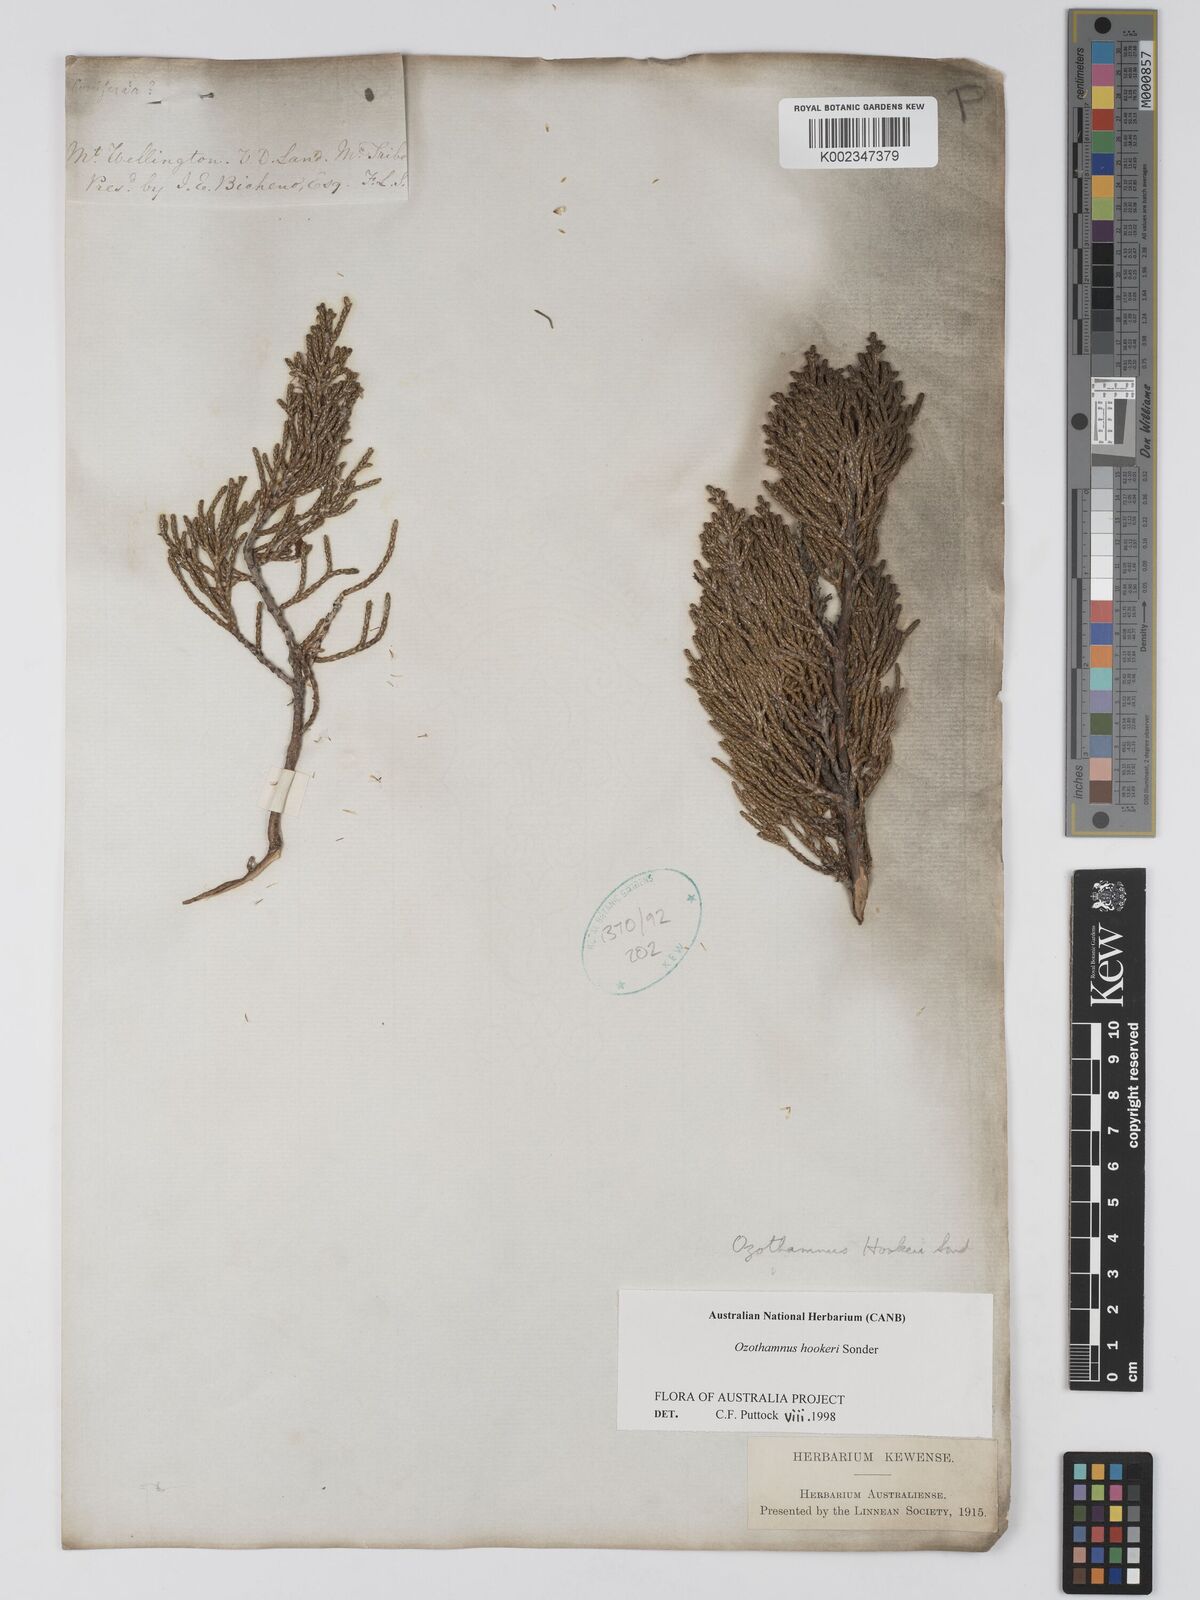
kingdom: Plantae
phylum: Tracheophyta
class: Magnoliopsida
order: Asterales
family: Asteraceae
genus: Ozothamnus
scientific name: Ozothamnus hookeri
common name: Kerosene-bush
